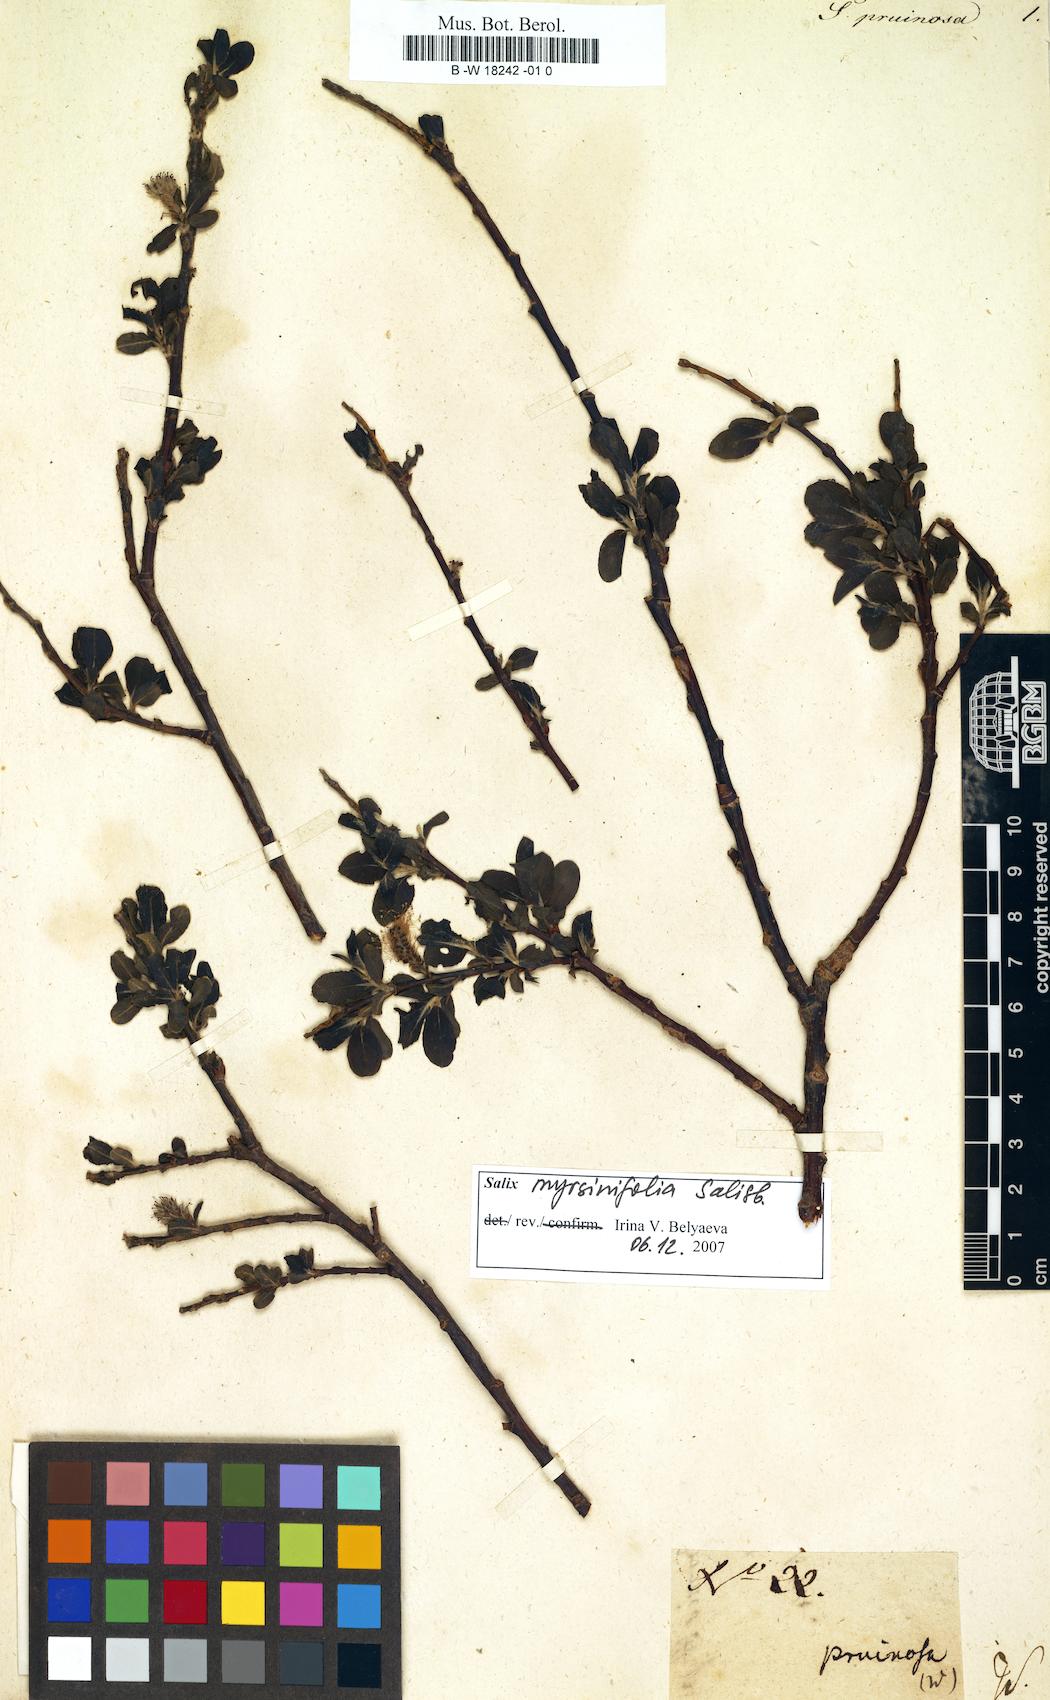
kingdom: Plantae
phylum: Tracheophyta
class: Magnoliopsida
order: Malpighiales
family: Salicaceae
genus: Salix
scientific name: Salix
